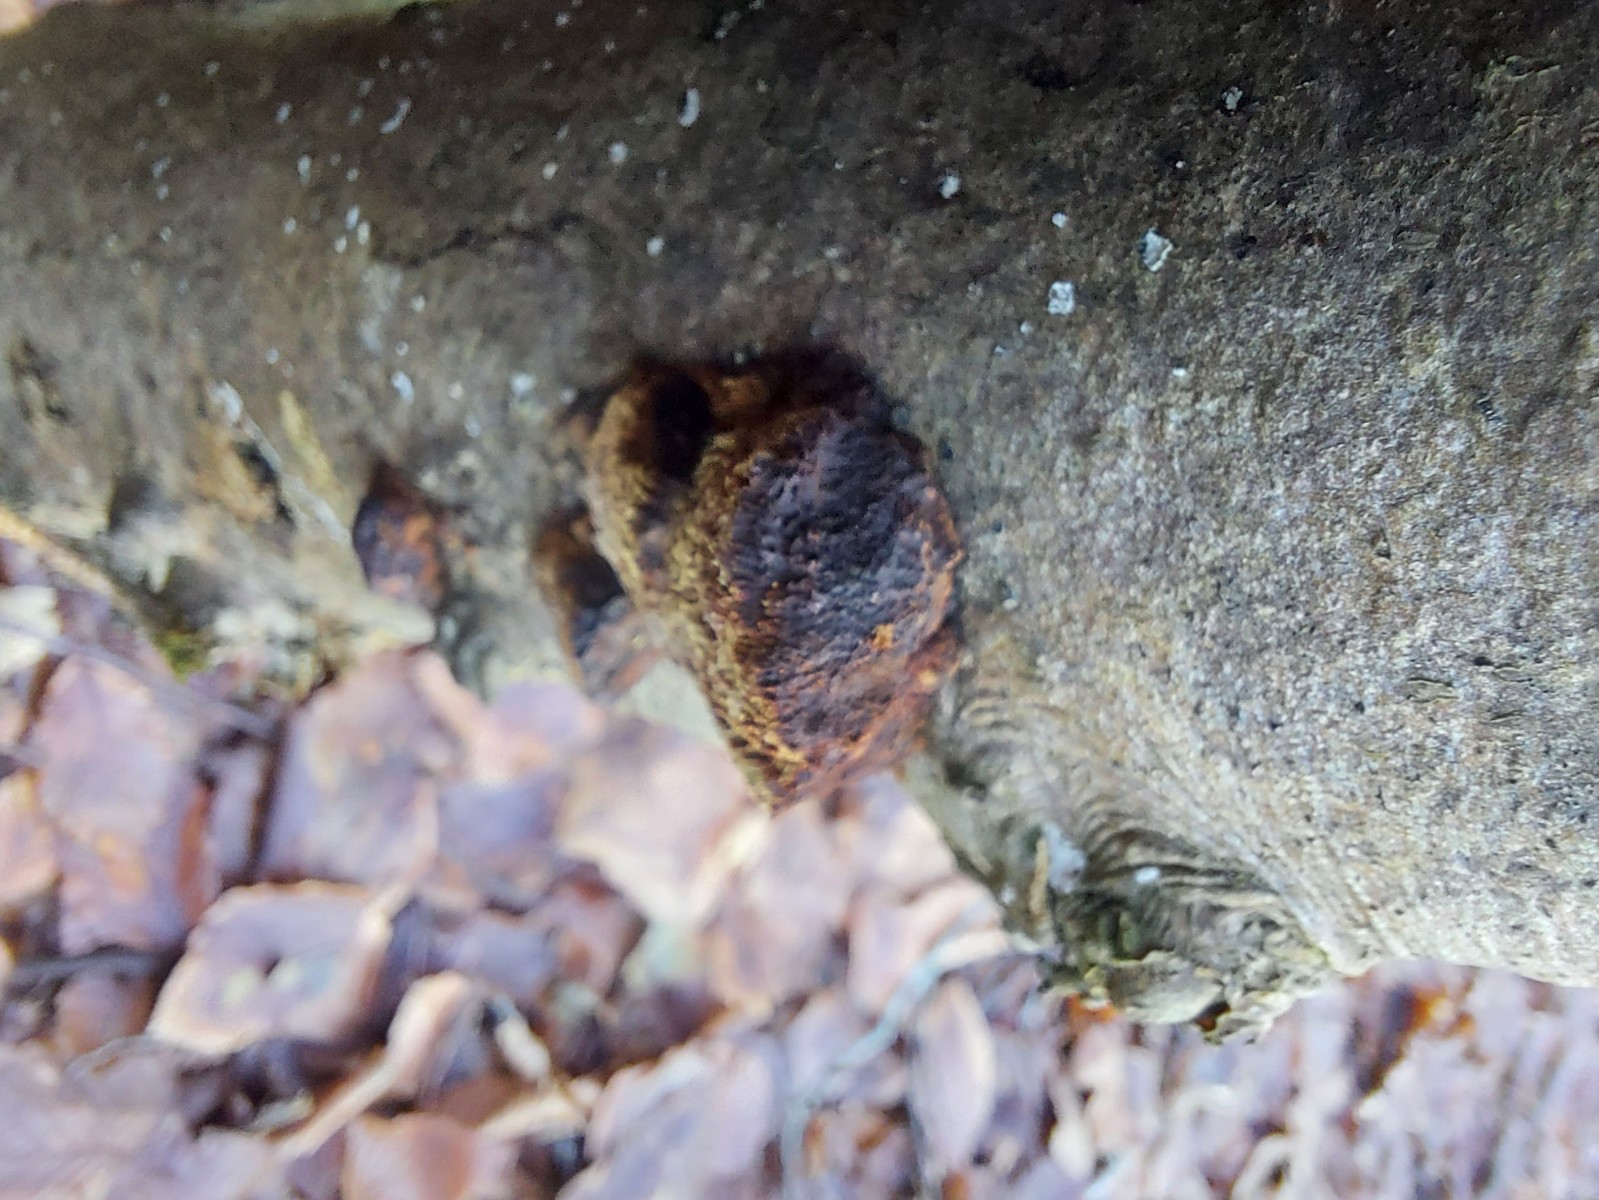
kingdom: Fungi
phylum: Basidiomycota
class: Agaricomycetes
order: Hymenochaetales
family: Hymenochaetaceae
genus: Mensularia
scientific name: Mensularia nodulosa
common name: bøge-spejlporesvamp
